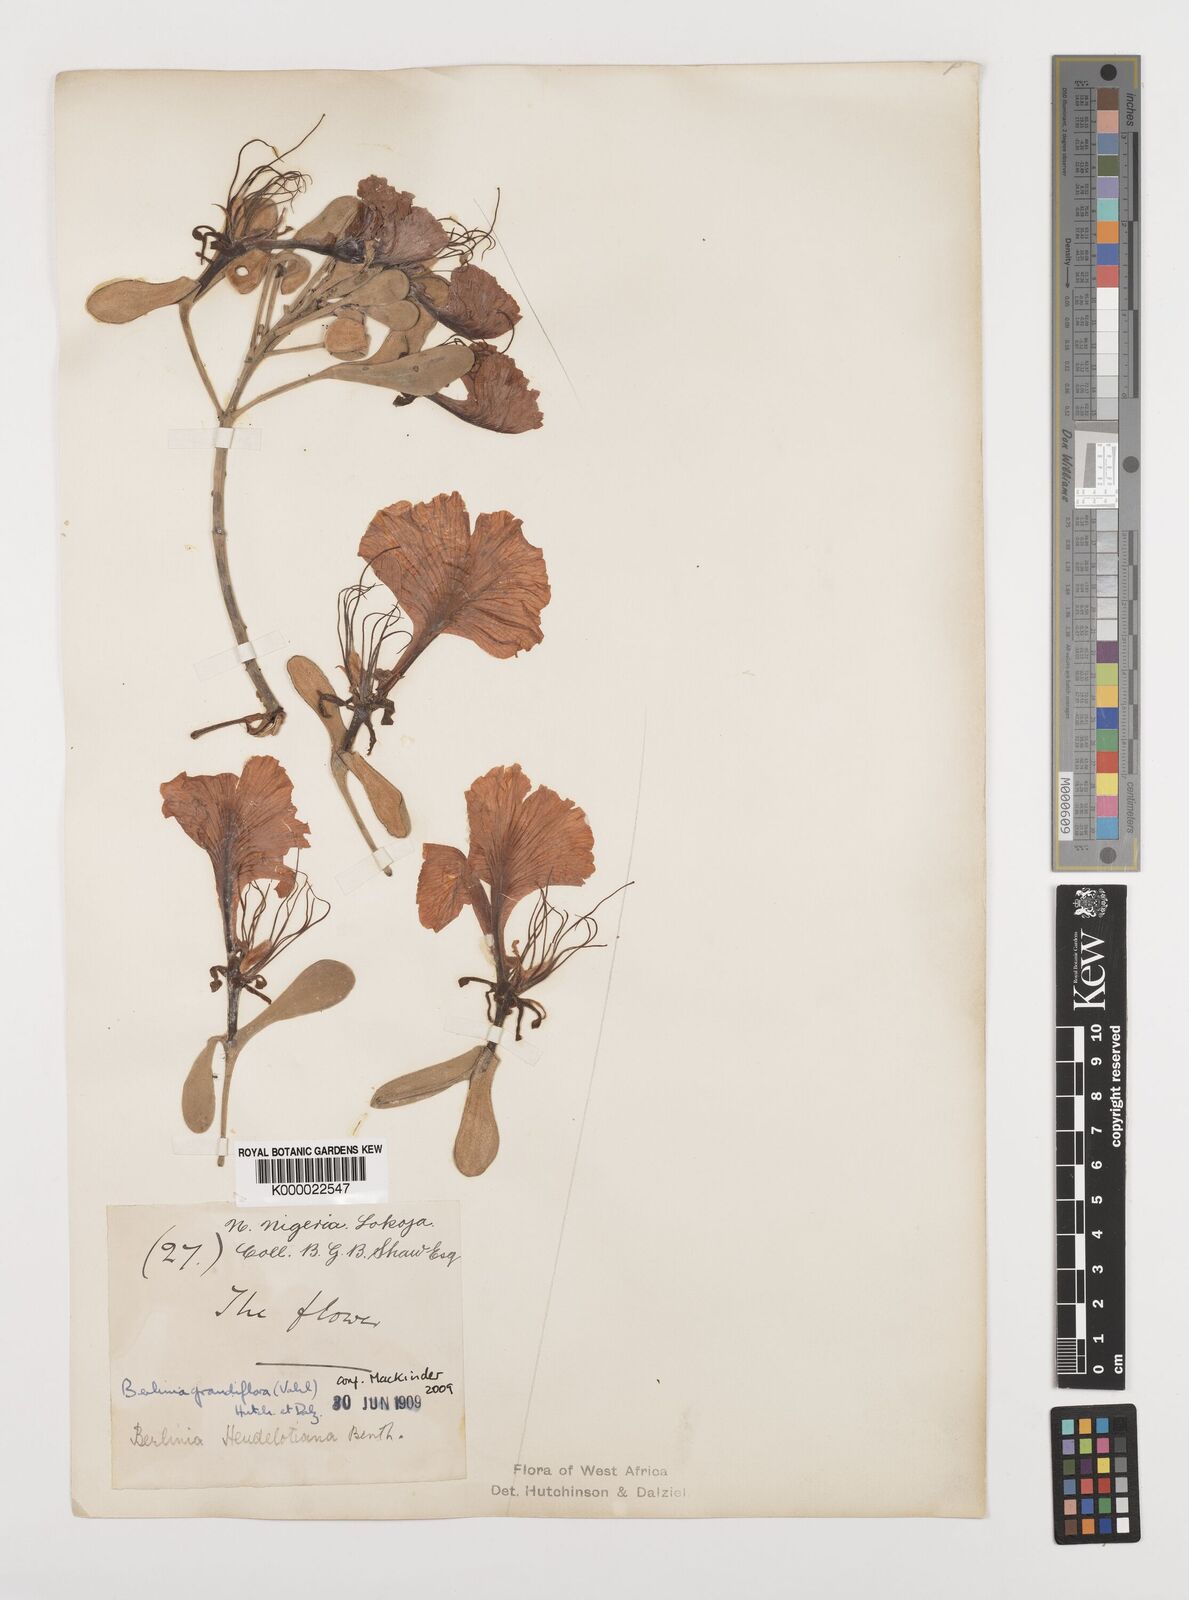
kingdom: Plantae
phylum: Tracheophyta
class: Magnoliopsida
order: Fabales
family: Fabaceae
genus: Berlinia
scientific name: Berlinia grandiflora
